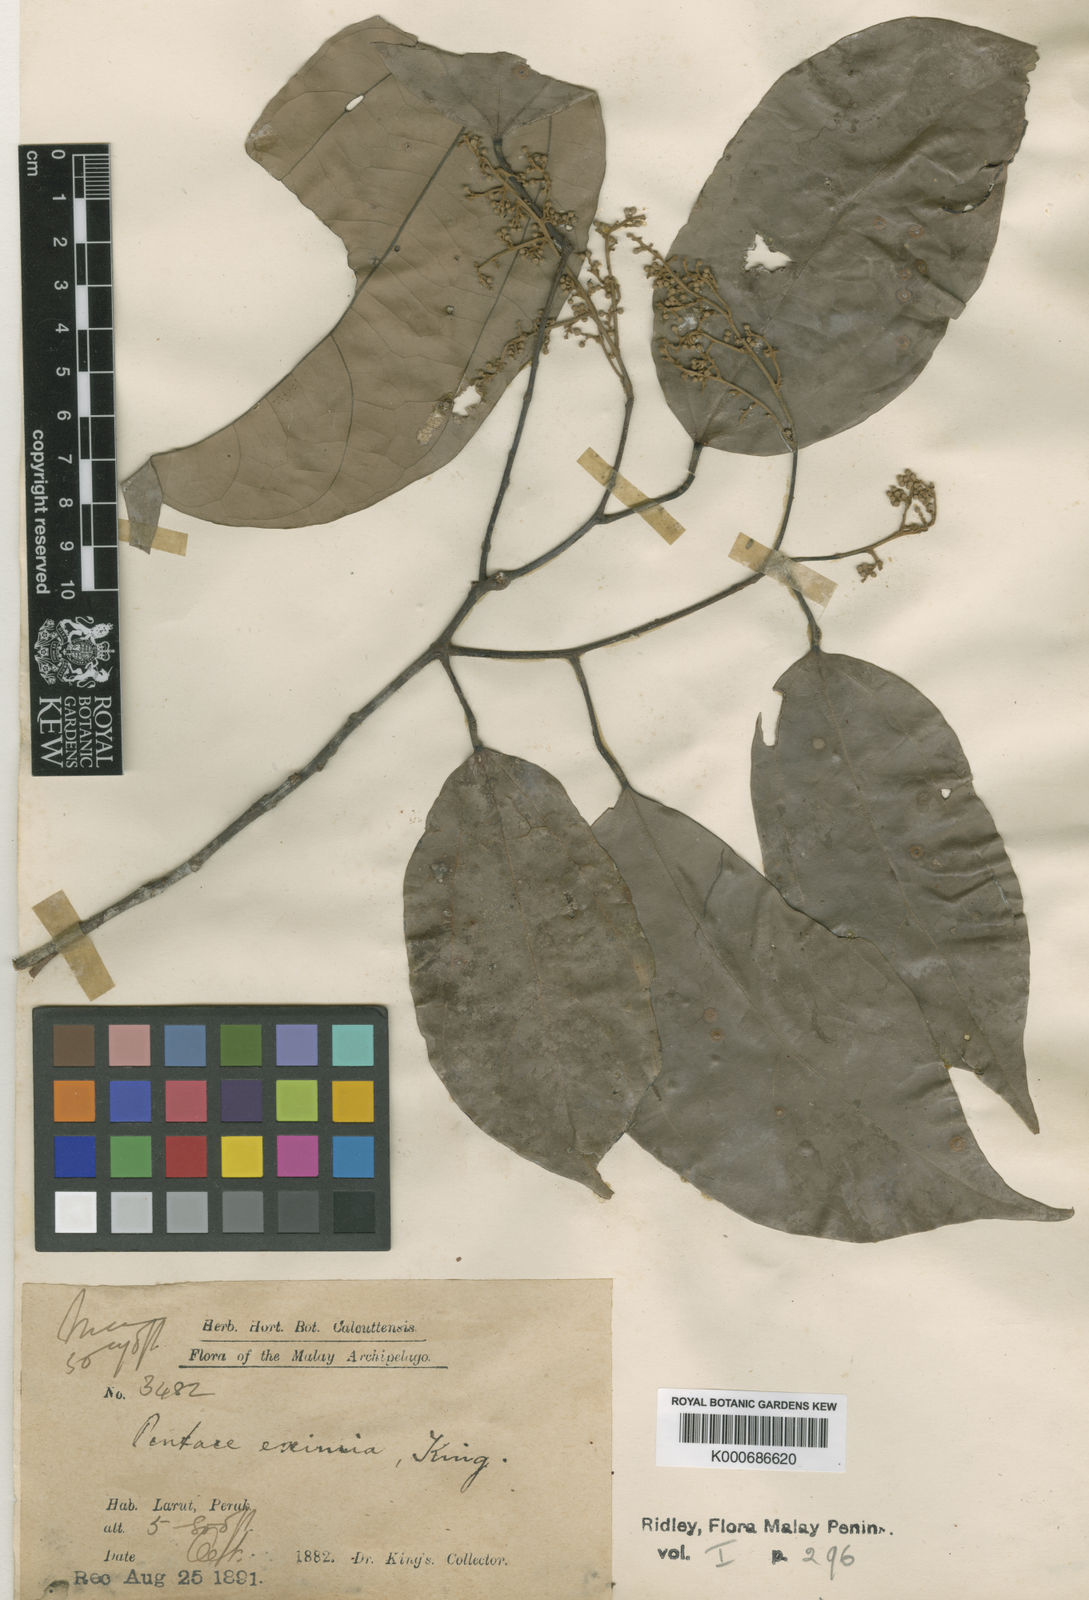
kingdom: Plantae
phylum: Tracheophyta
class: Magnoliopsida
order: Malvales
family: Malvaceae
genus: Pentace
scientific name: Pentace eximia
